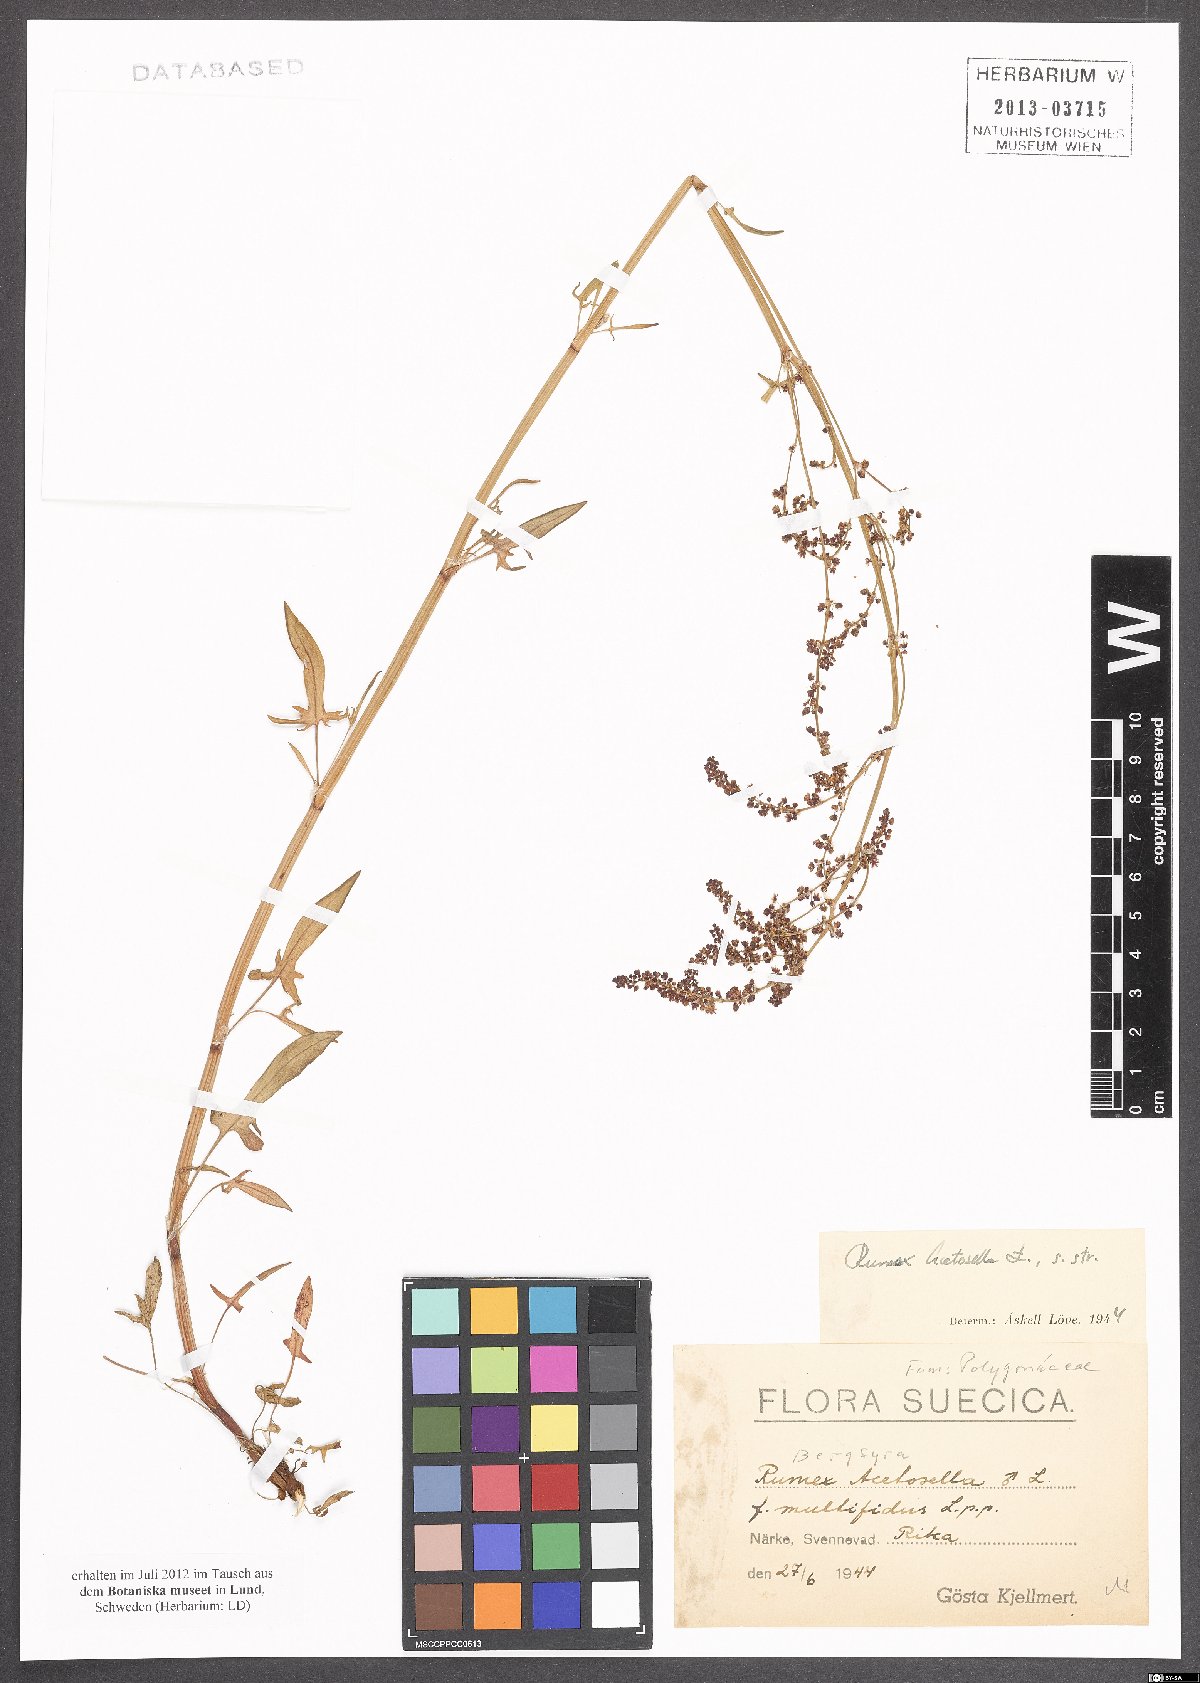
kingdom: Plantae
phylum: Tracheophyta
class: Magnoliopsida
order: Caryophyllales
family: Polygonaceae
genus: Rumex
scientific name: Rumex acetosella
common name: Common sheep sorrel
